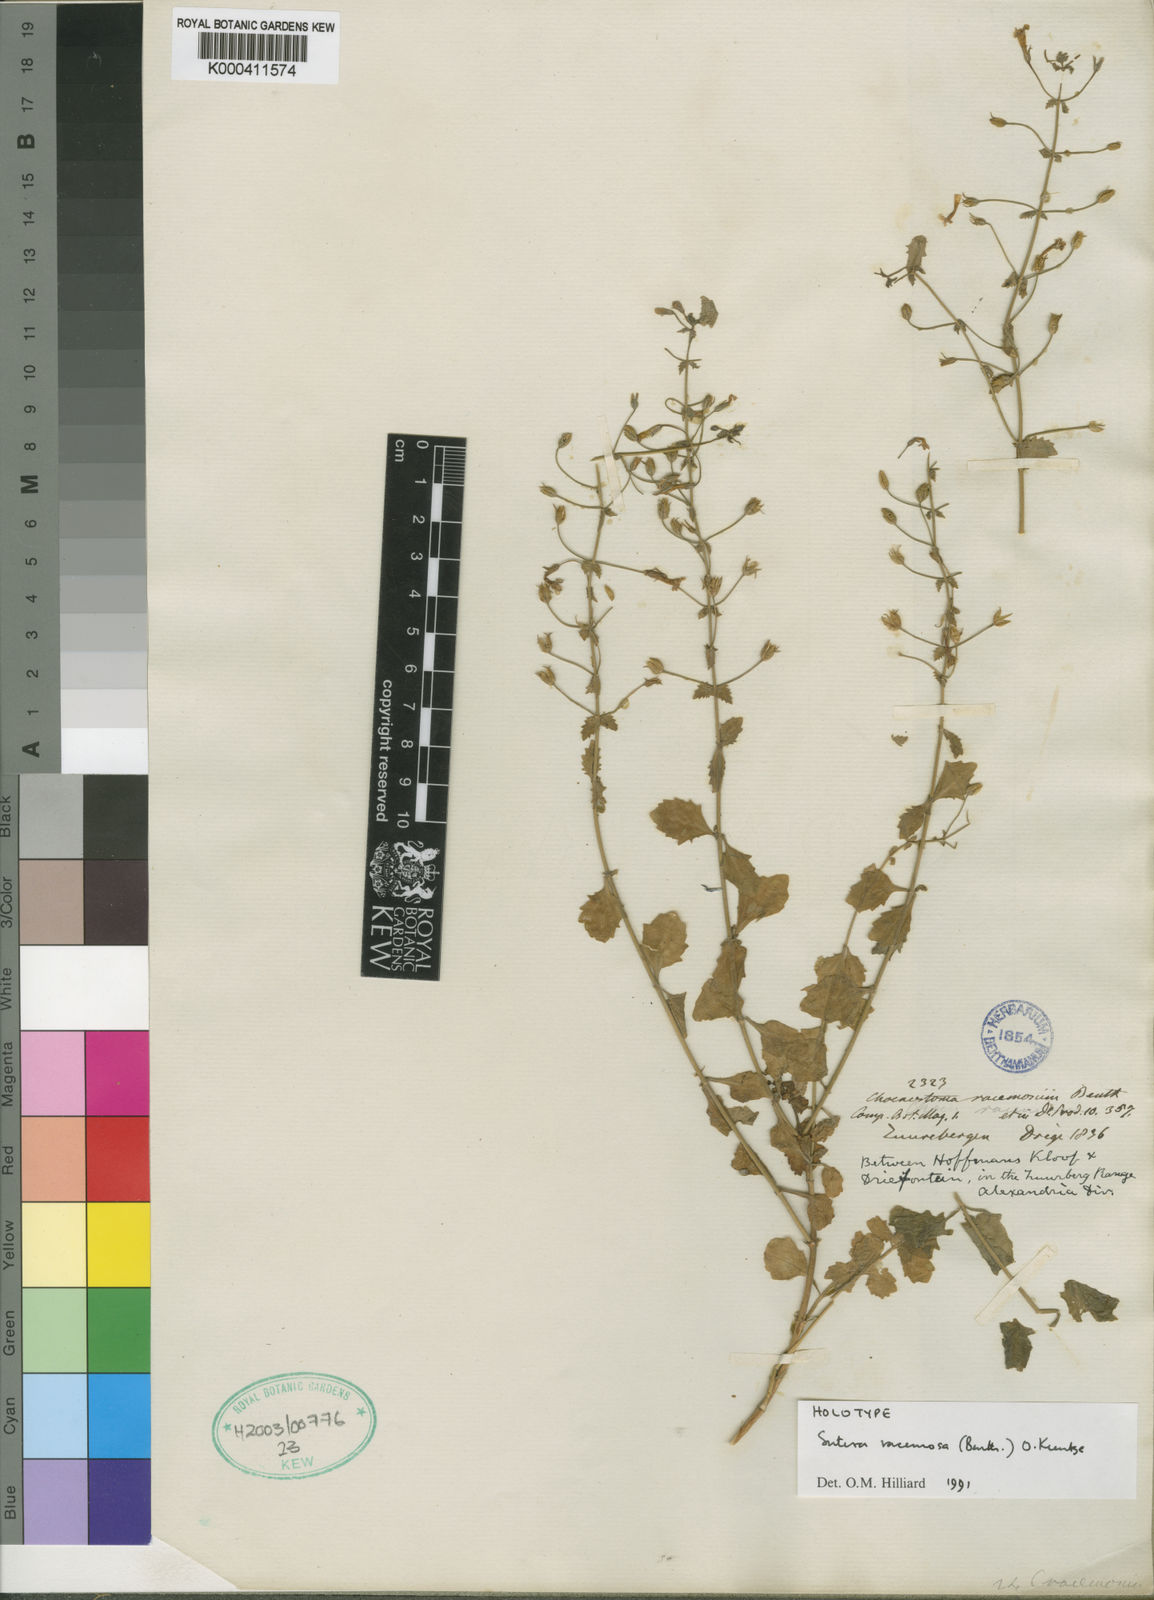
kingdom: Plantae
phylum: Tracheophyta
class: Magnoliopsida
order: Lamiales
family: Scrophulariaceae
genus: Chaenostoma
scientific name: Chaenostoma racemosum
